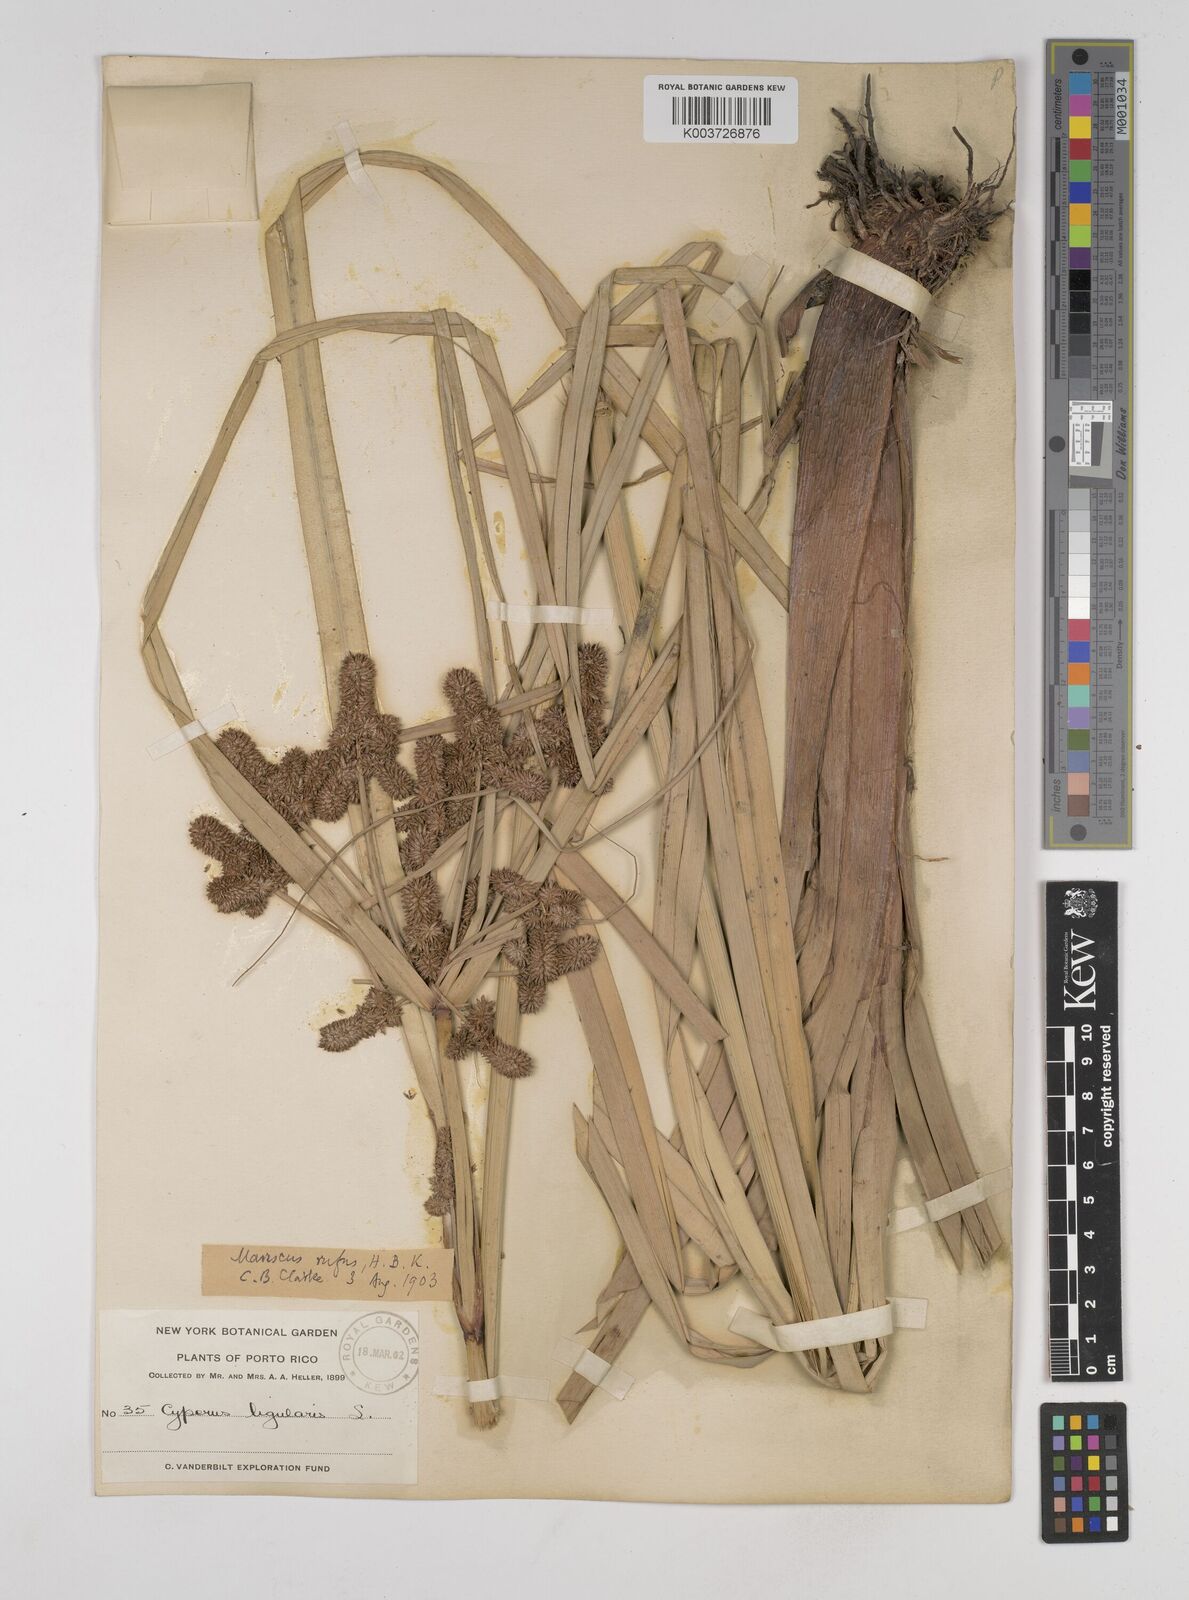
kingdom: Plantae
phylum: Tracheophyta
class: Liliopsida
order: Poales
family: Cyperaceae
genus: Cyperus
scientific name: Cyperus ligularis
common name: Swamp flat sedge
